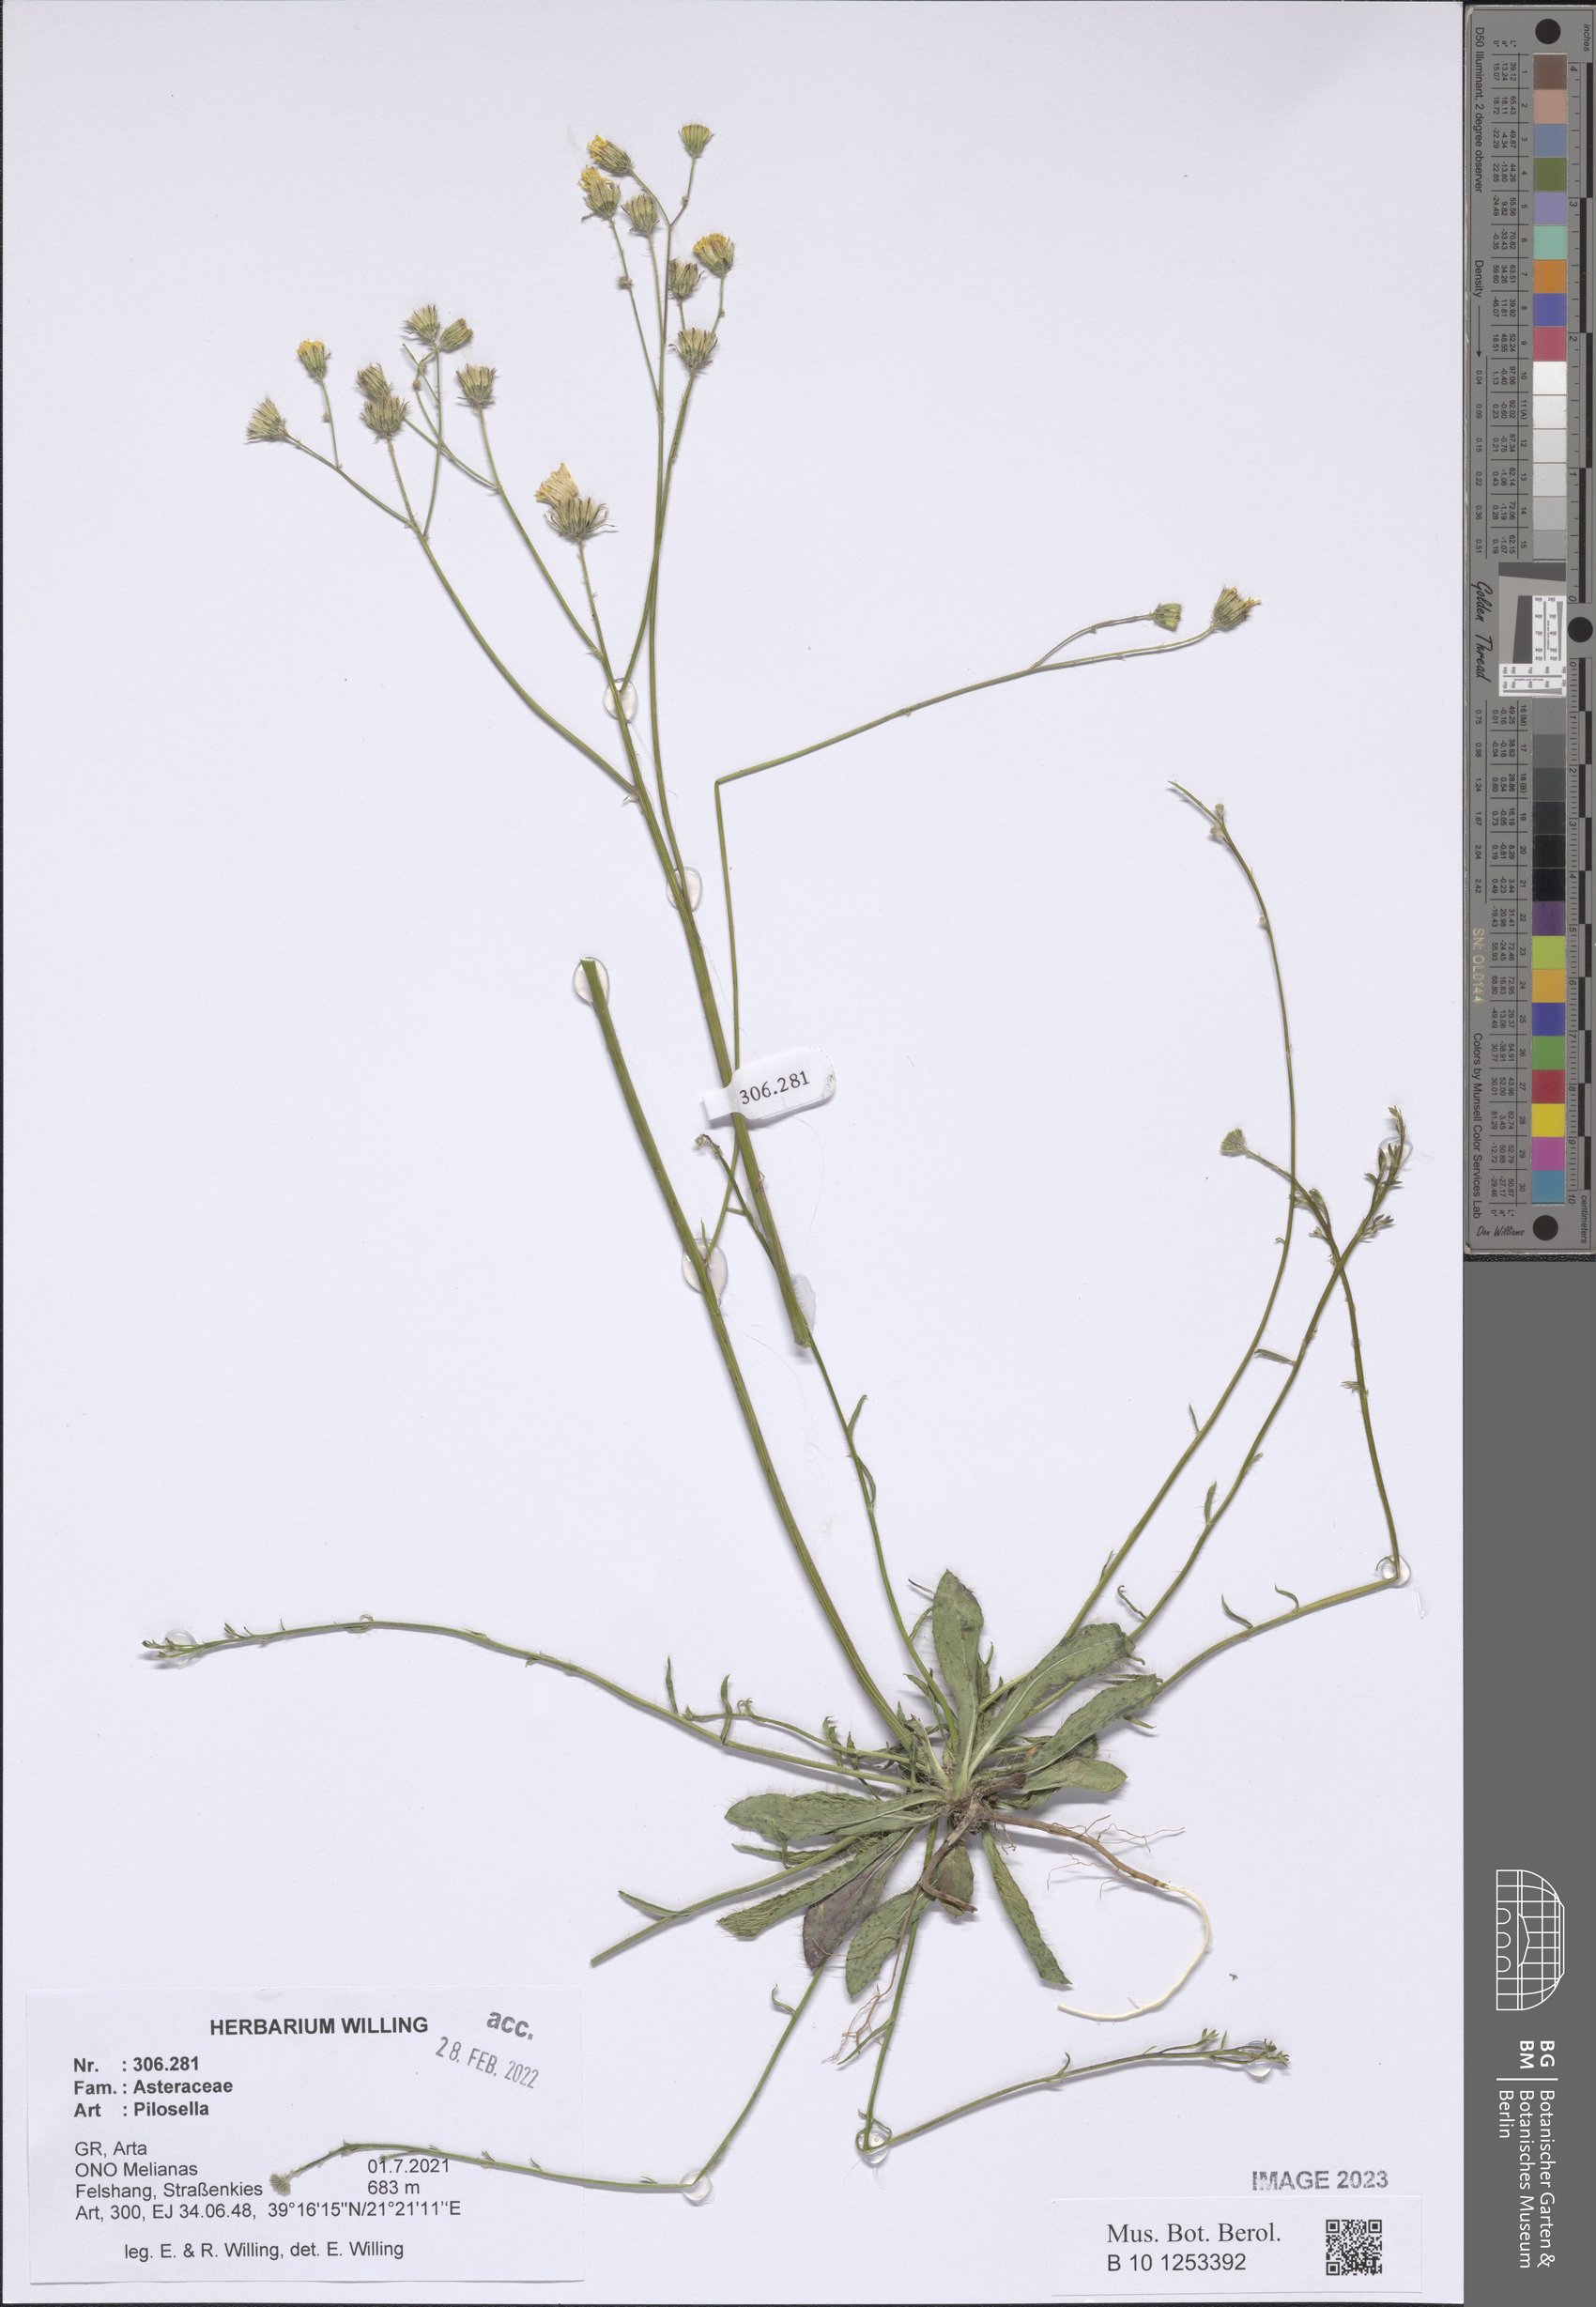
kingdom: Plantae
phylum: Tracheophyta
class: Magnoliopsida
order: Asterales
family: Asteraceae
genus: Pilosella
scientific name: Pilosella
